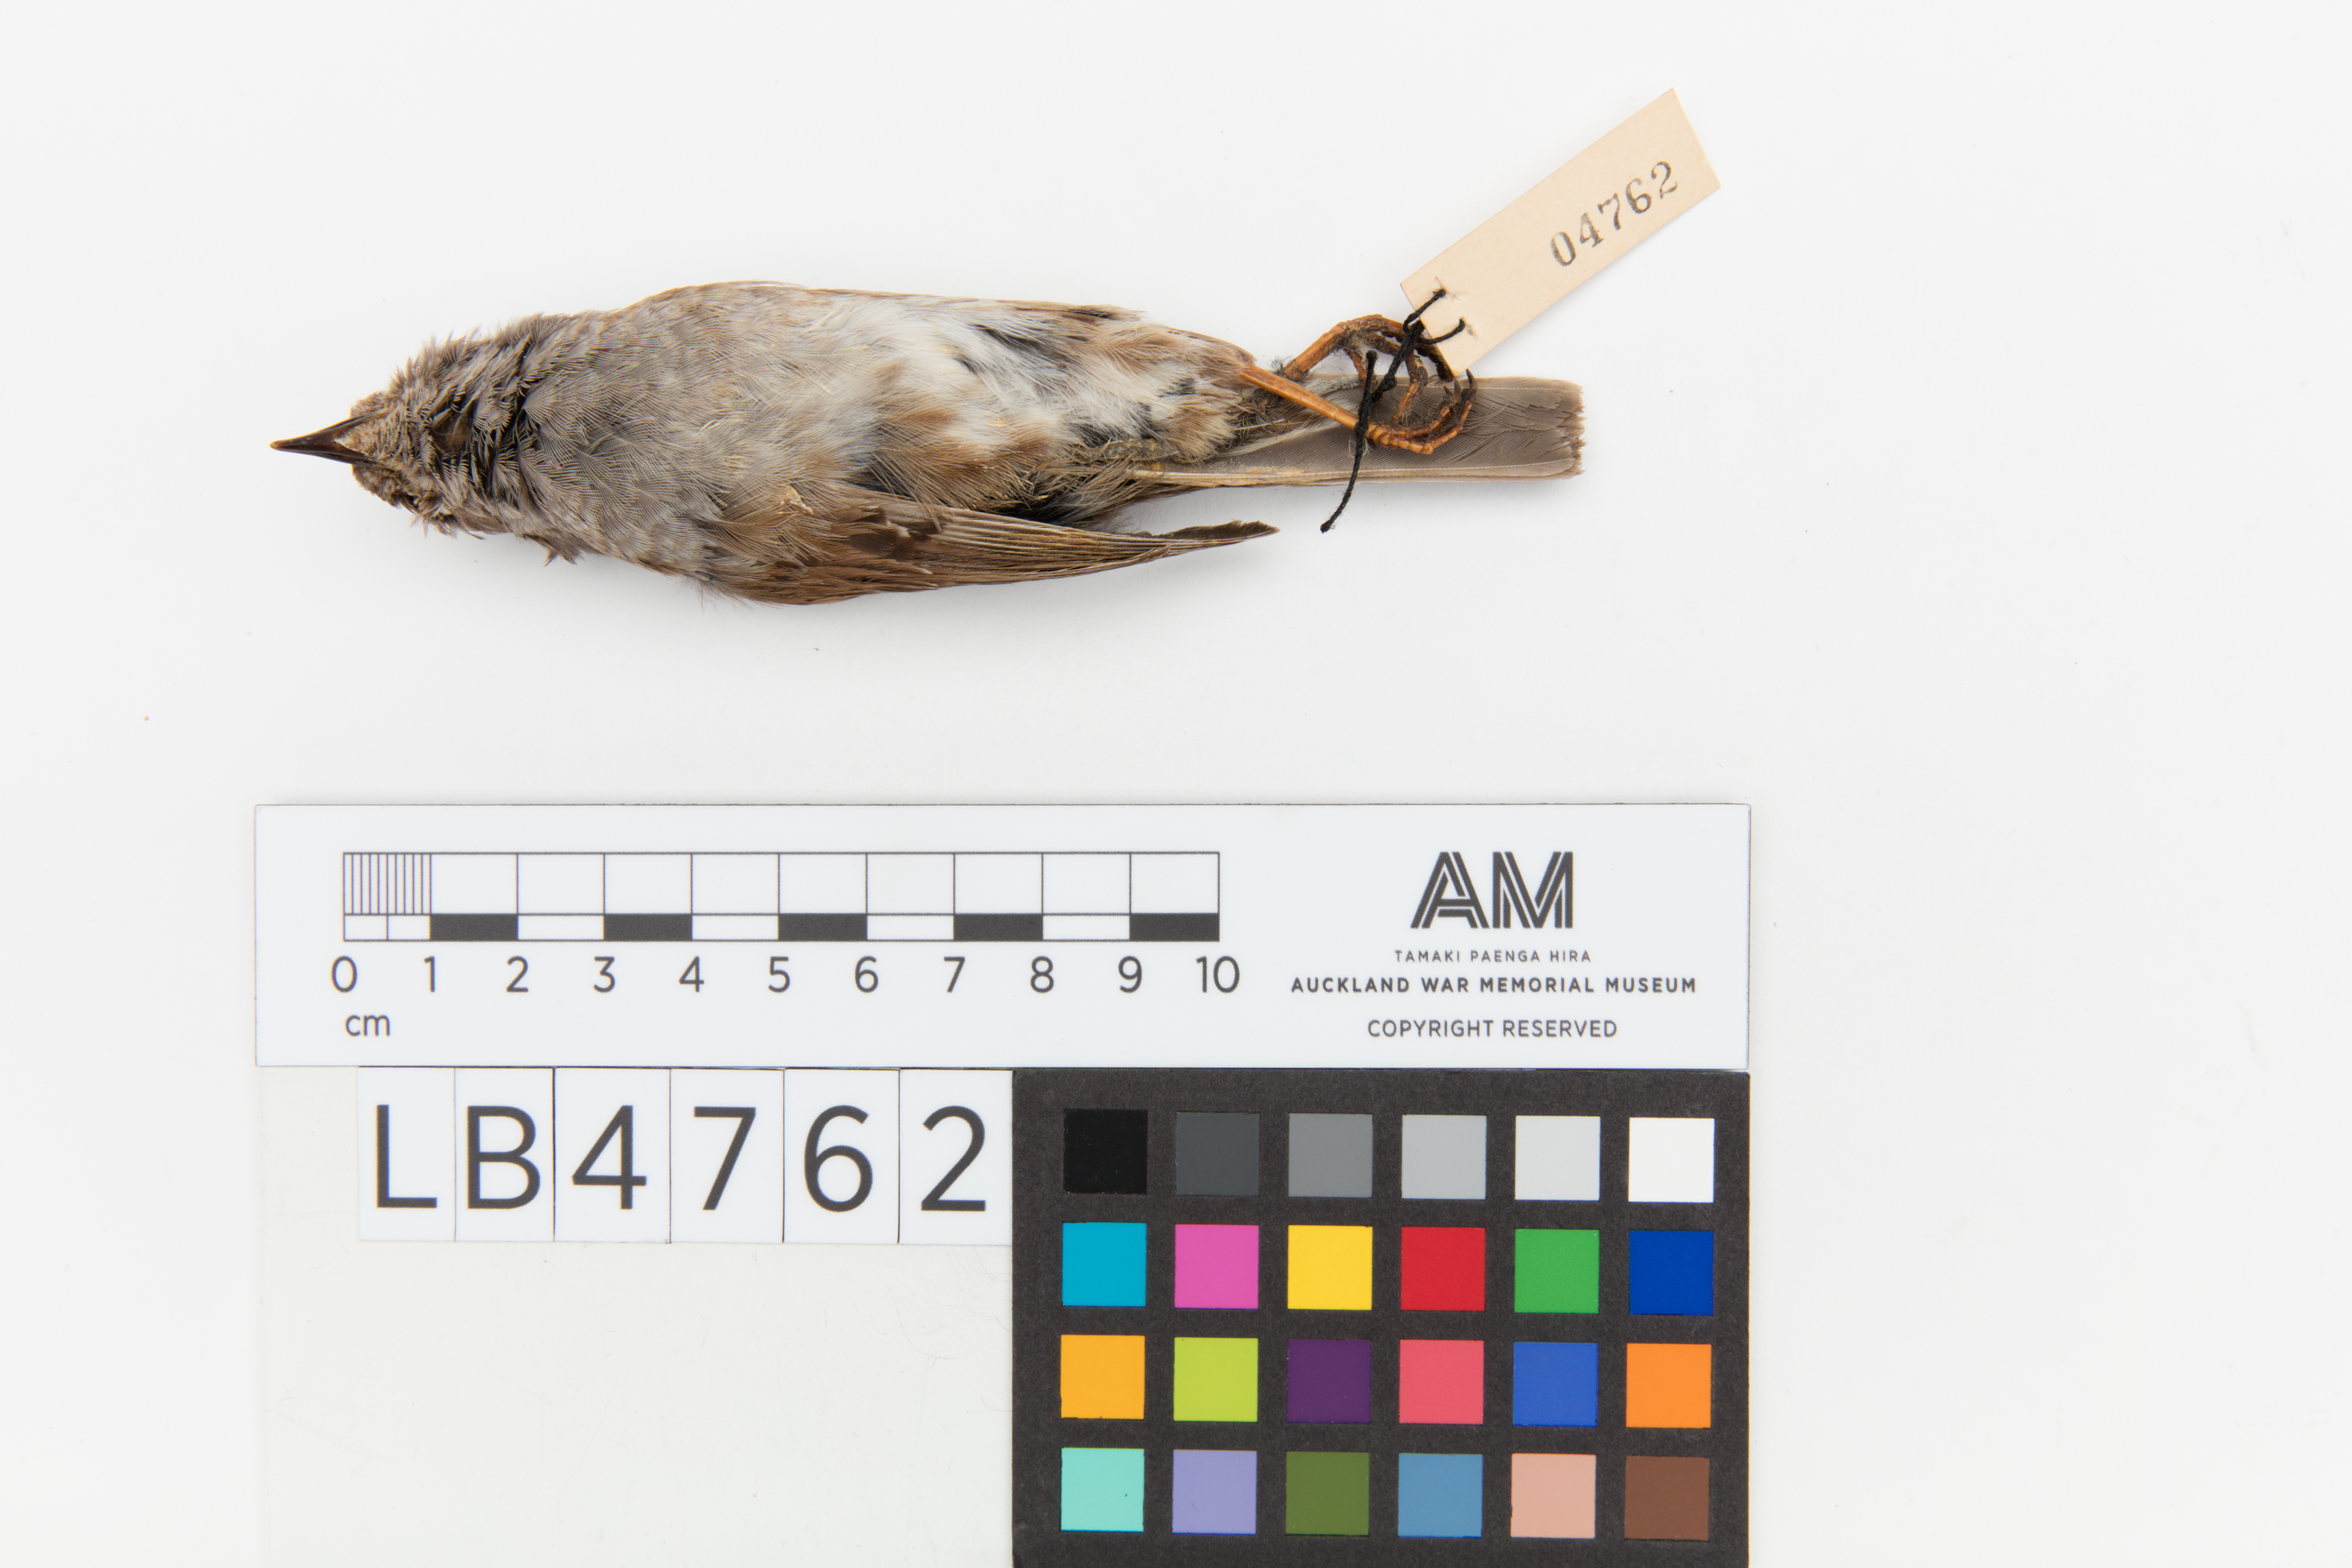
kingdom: Animalia
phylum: Chordata
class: Aves
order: Passeriformes
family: Prunellidae
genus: Prunella
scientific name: Prunella modularis
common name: Dunnock
